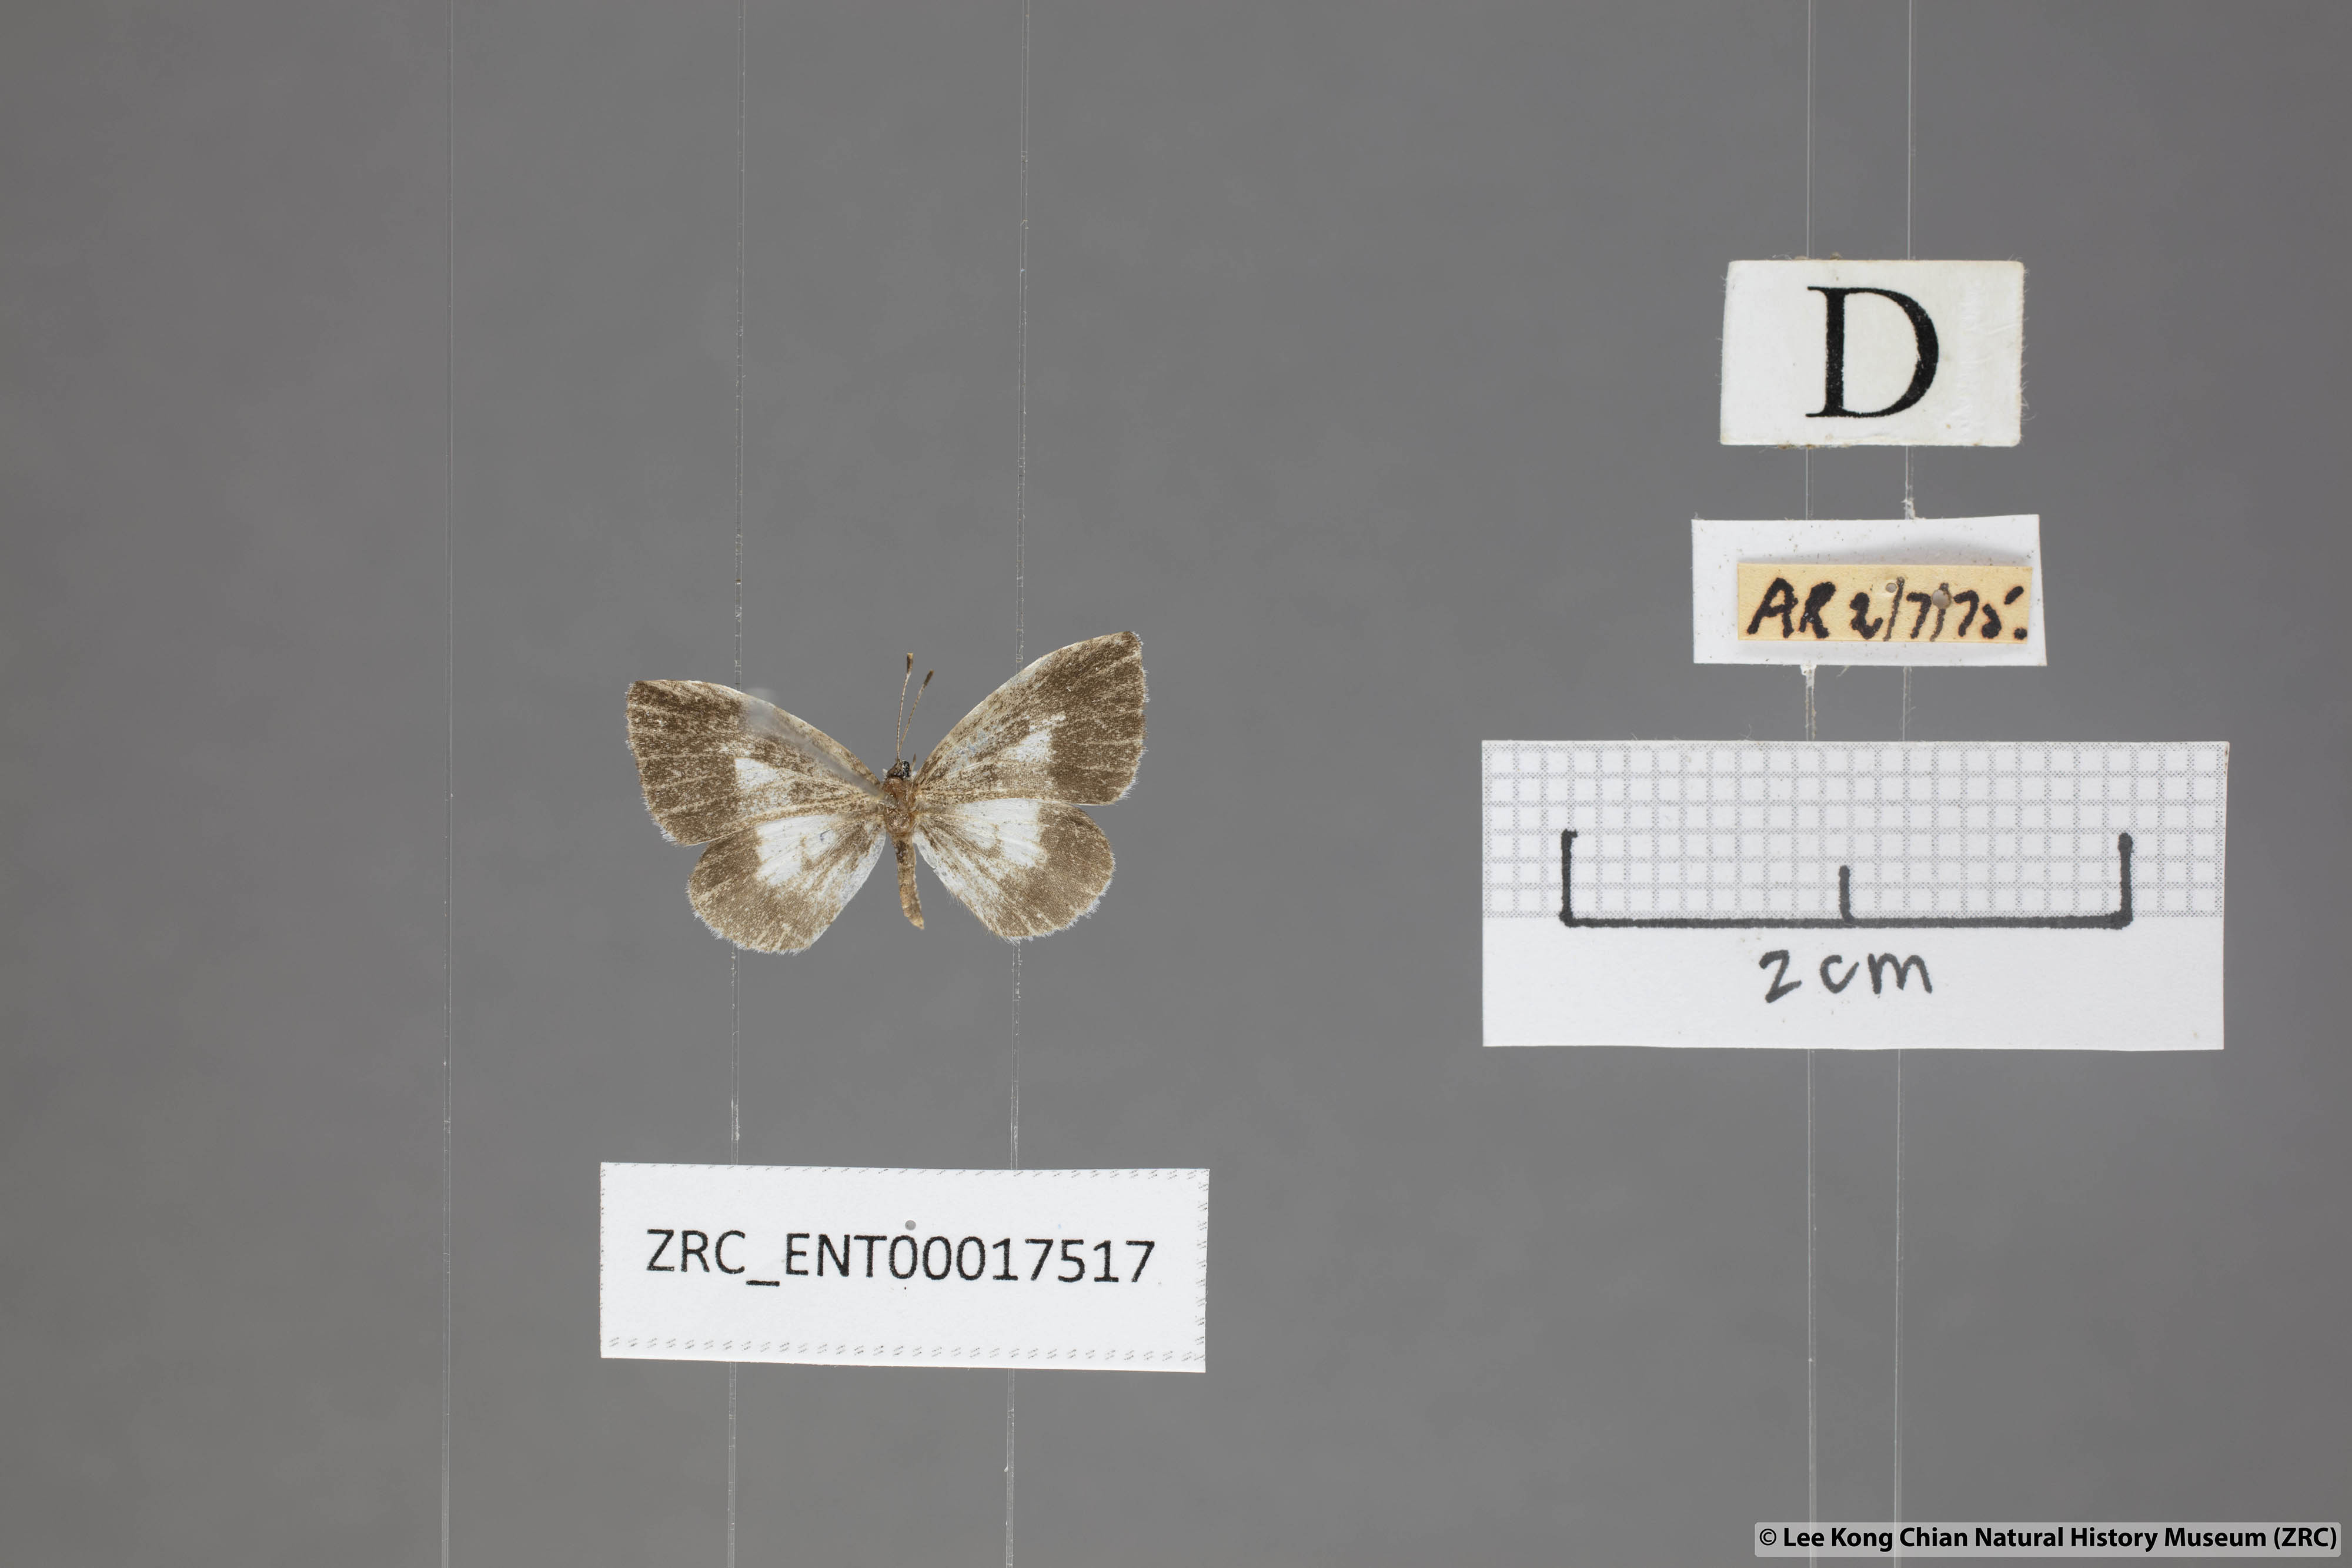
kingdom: Animalia
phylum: Arthropoda
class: Insecta
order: Lepidoptera
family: Lycaenidae
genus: Taraka
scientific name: Taraka mahanetra
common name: Lesser pierrot
